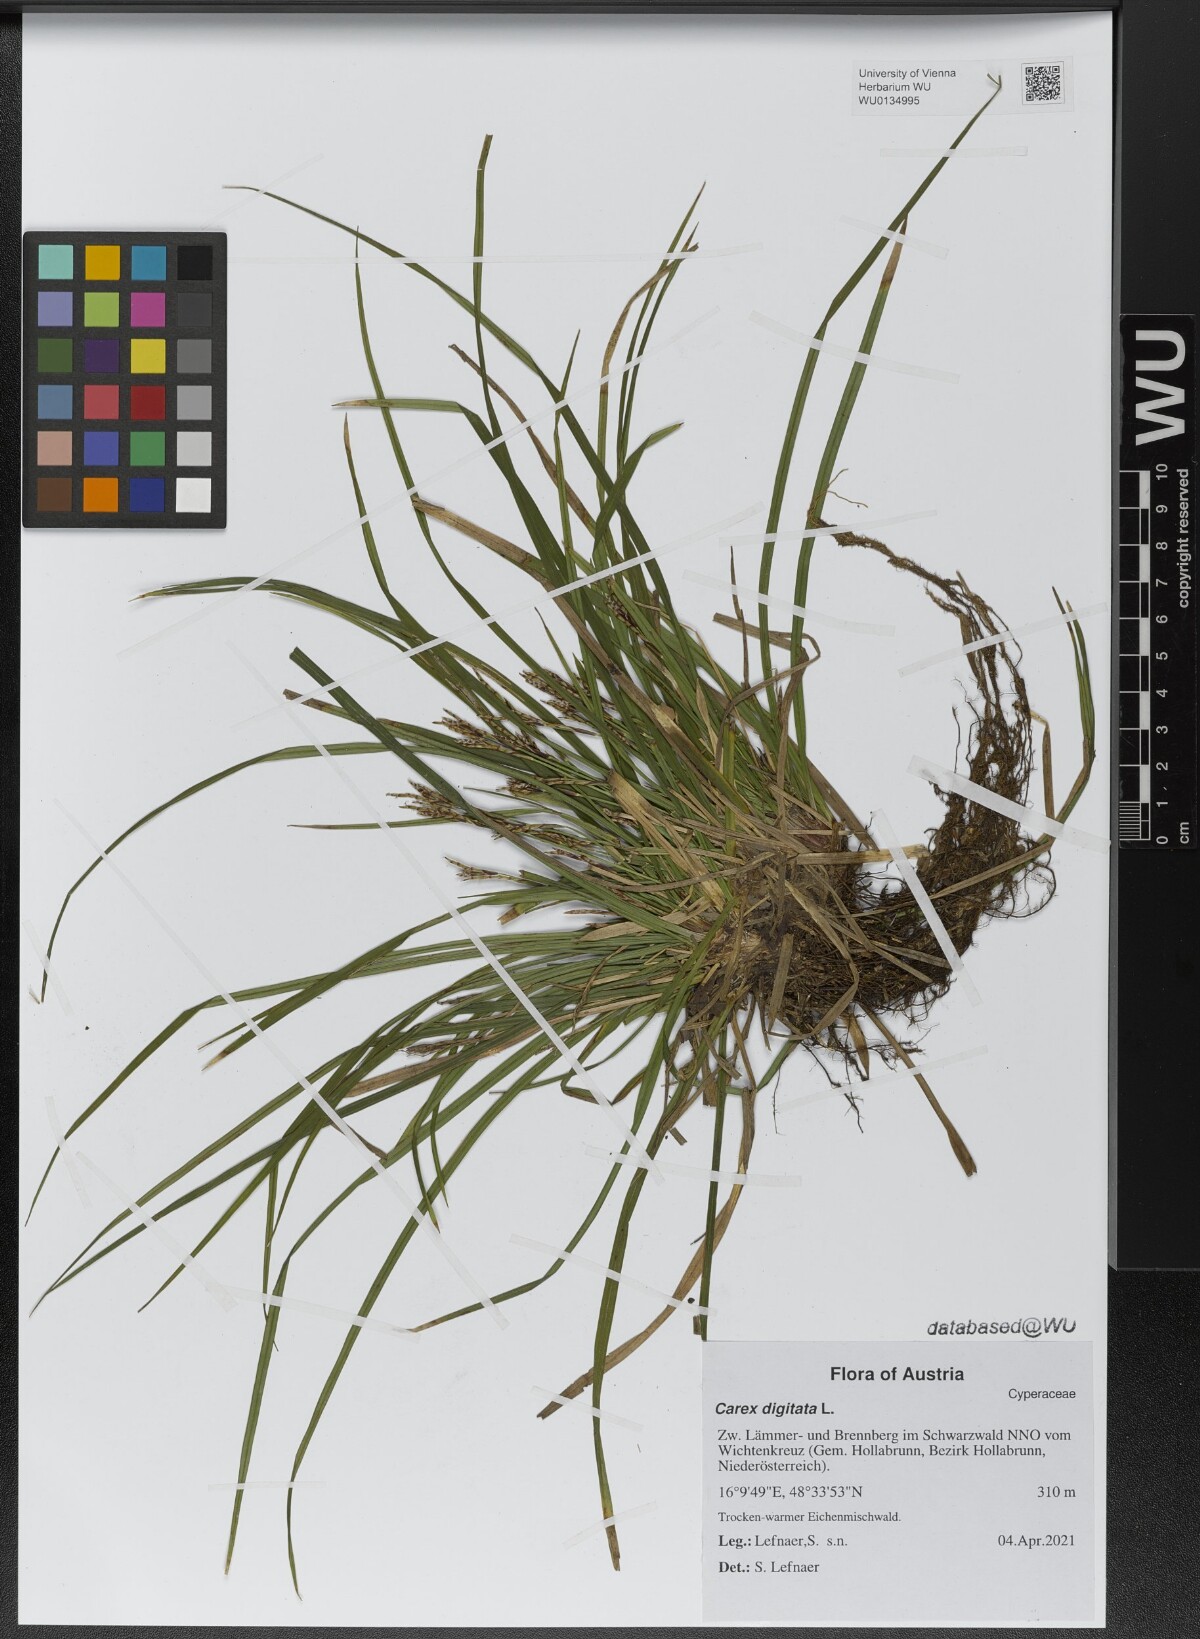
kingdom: Plantae
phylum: Tracheophyta
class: Liliopsida
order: Poales
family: Cyperaceae
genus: Carex
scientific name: Carex digitata
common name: Fingered sedge
